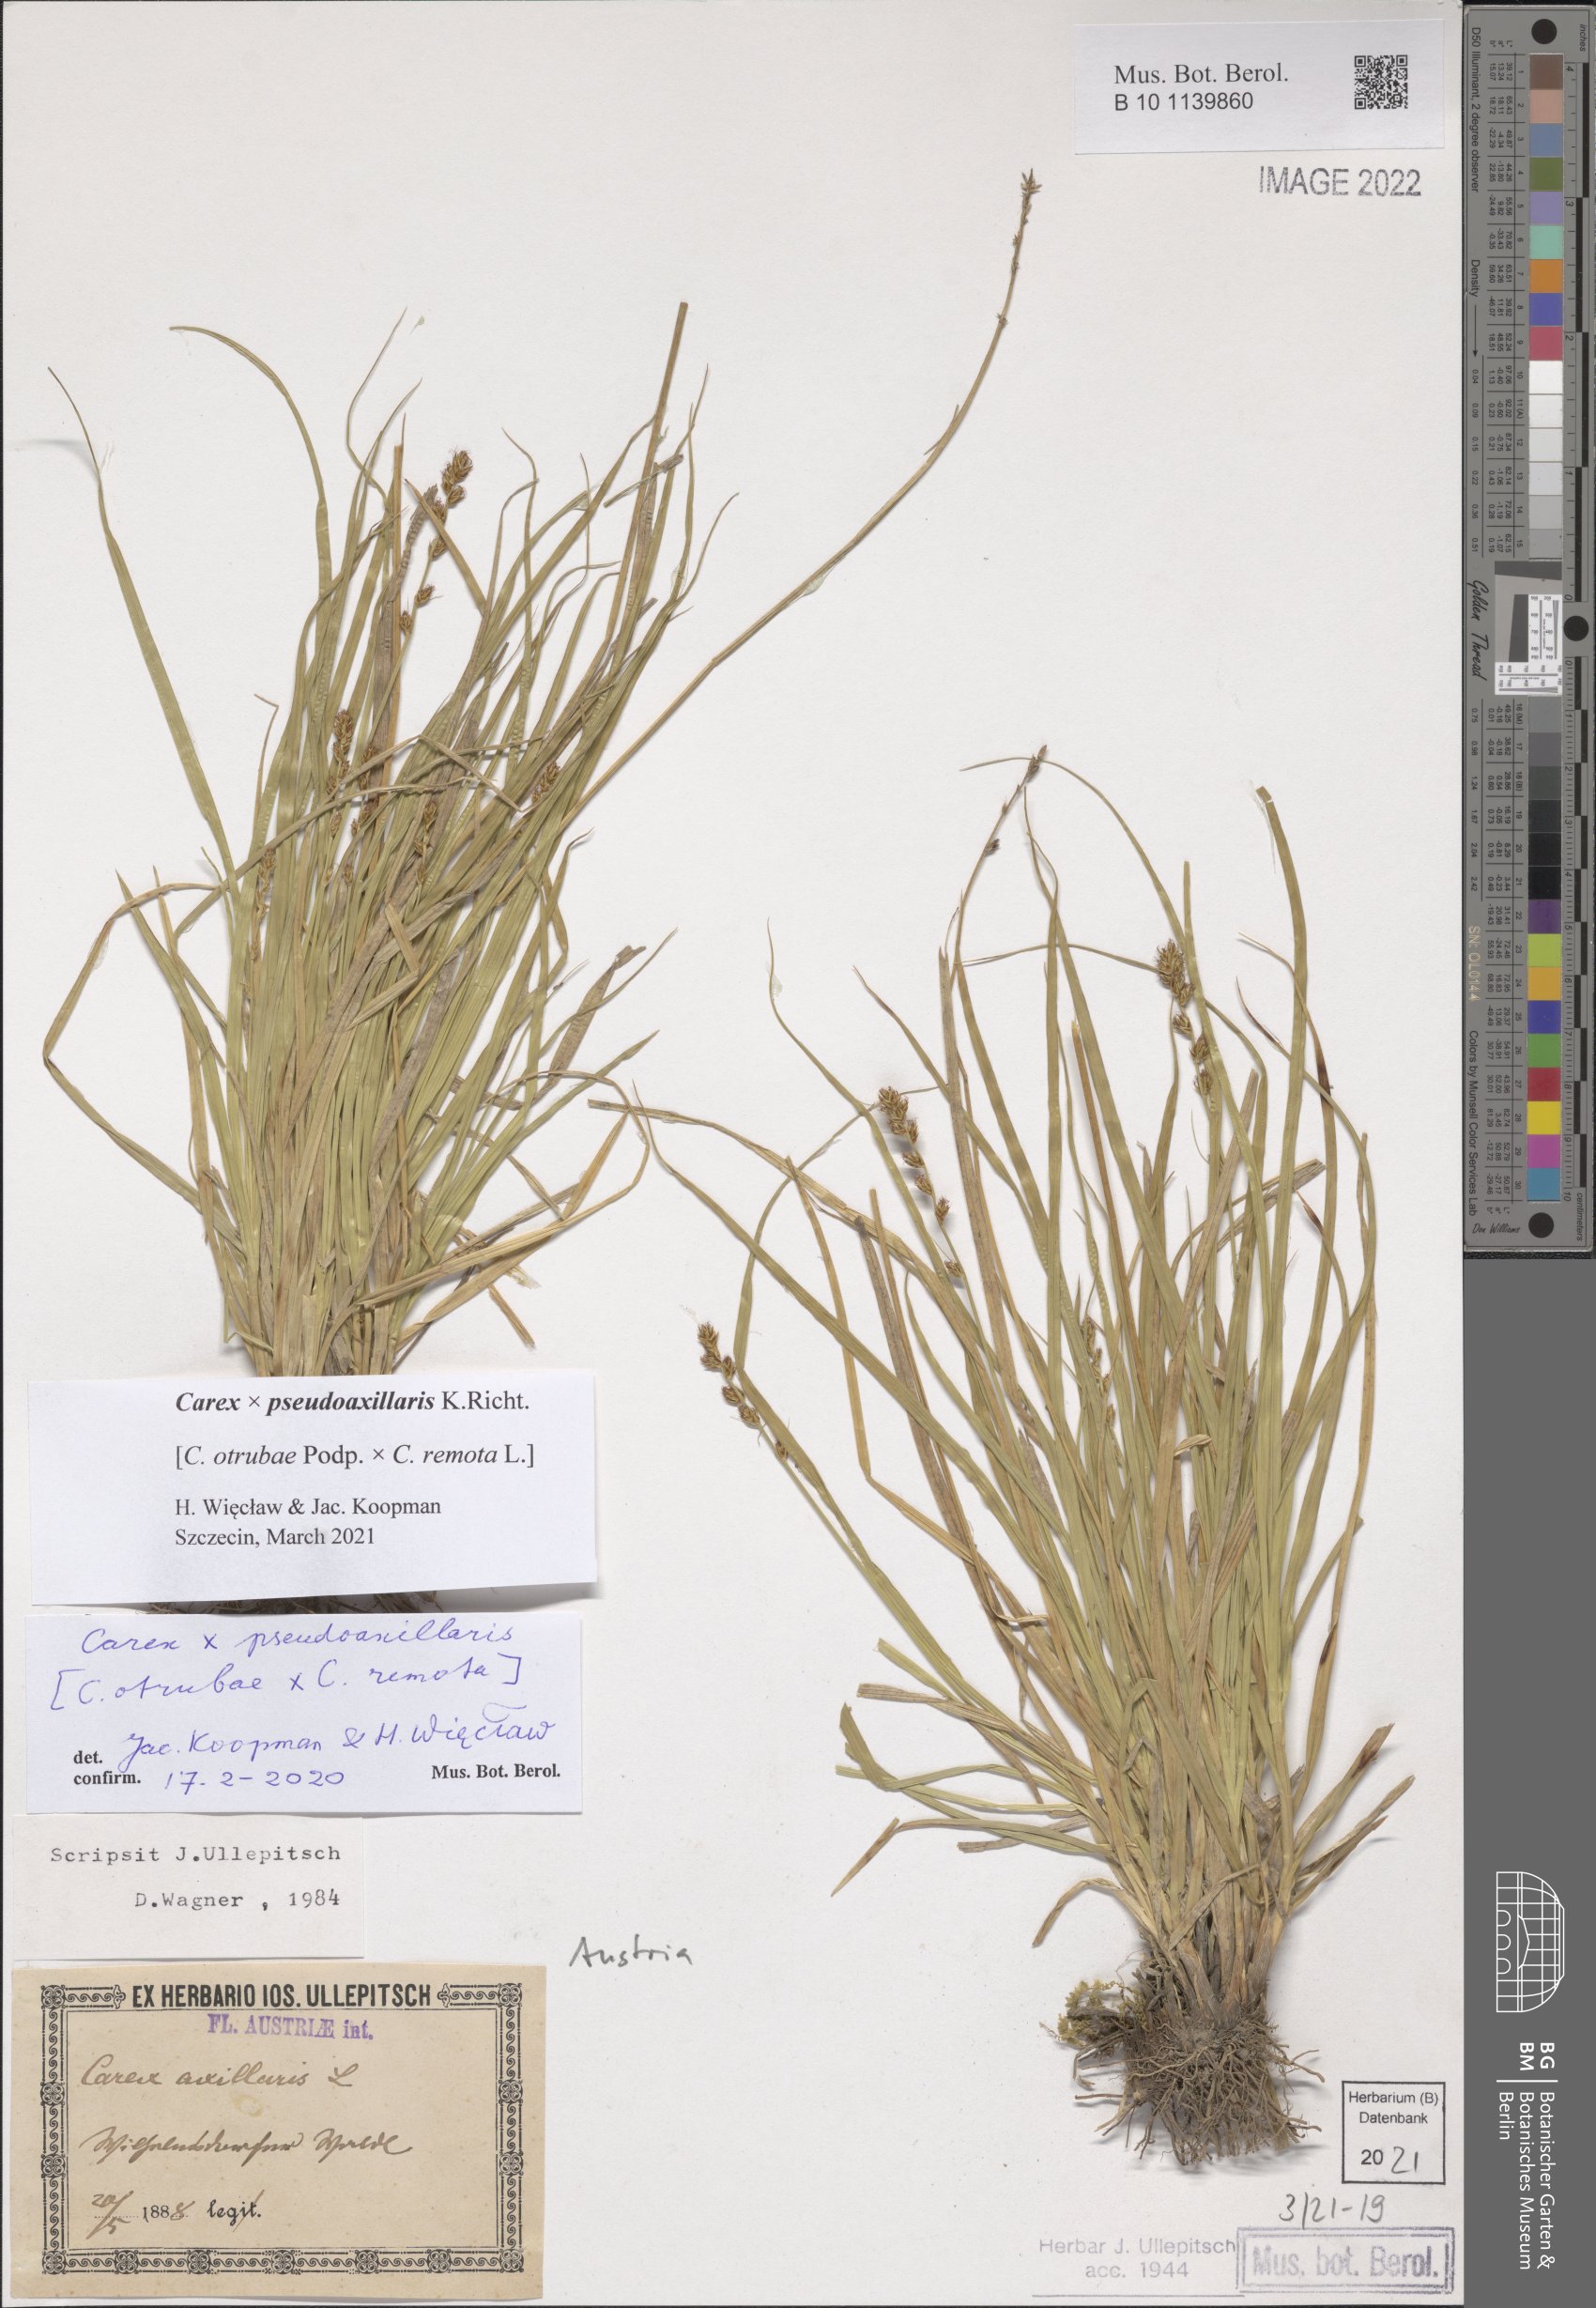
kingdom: Plantae
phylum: Tracheophyta
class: Liliopsida
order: Poales
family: Cyperaceae
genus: Carex
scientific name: Carex pseudoaxillaris
